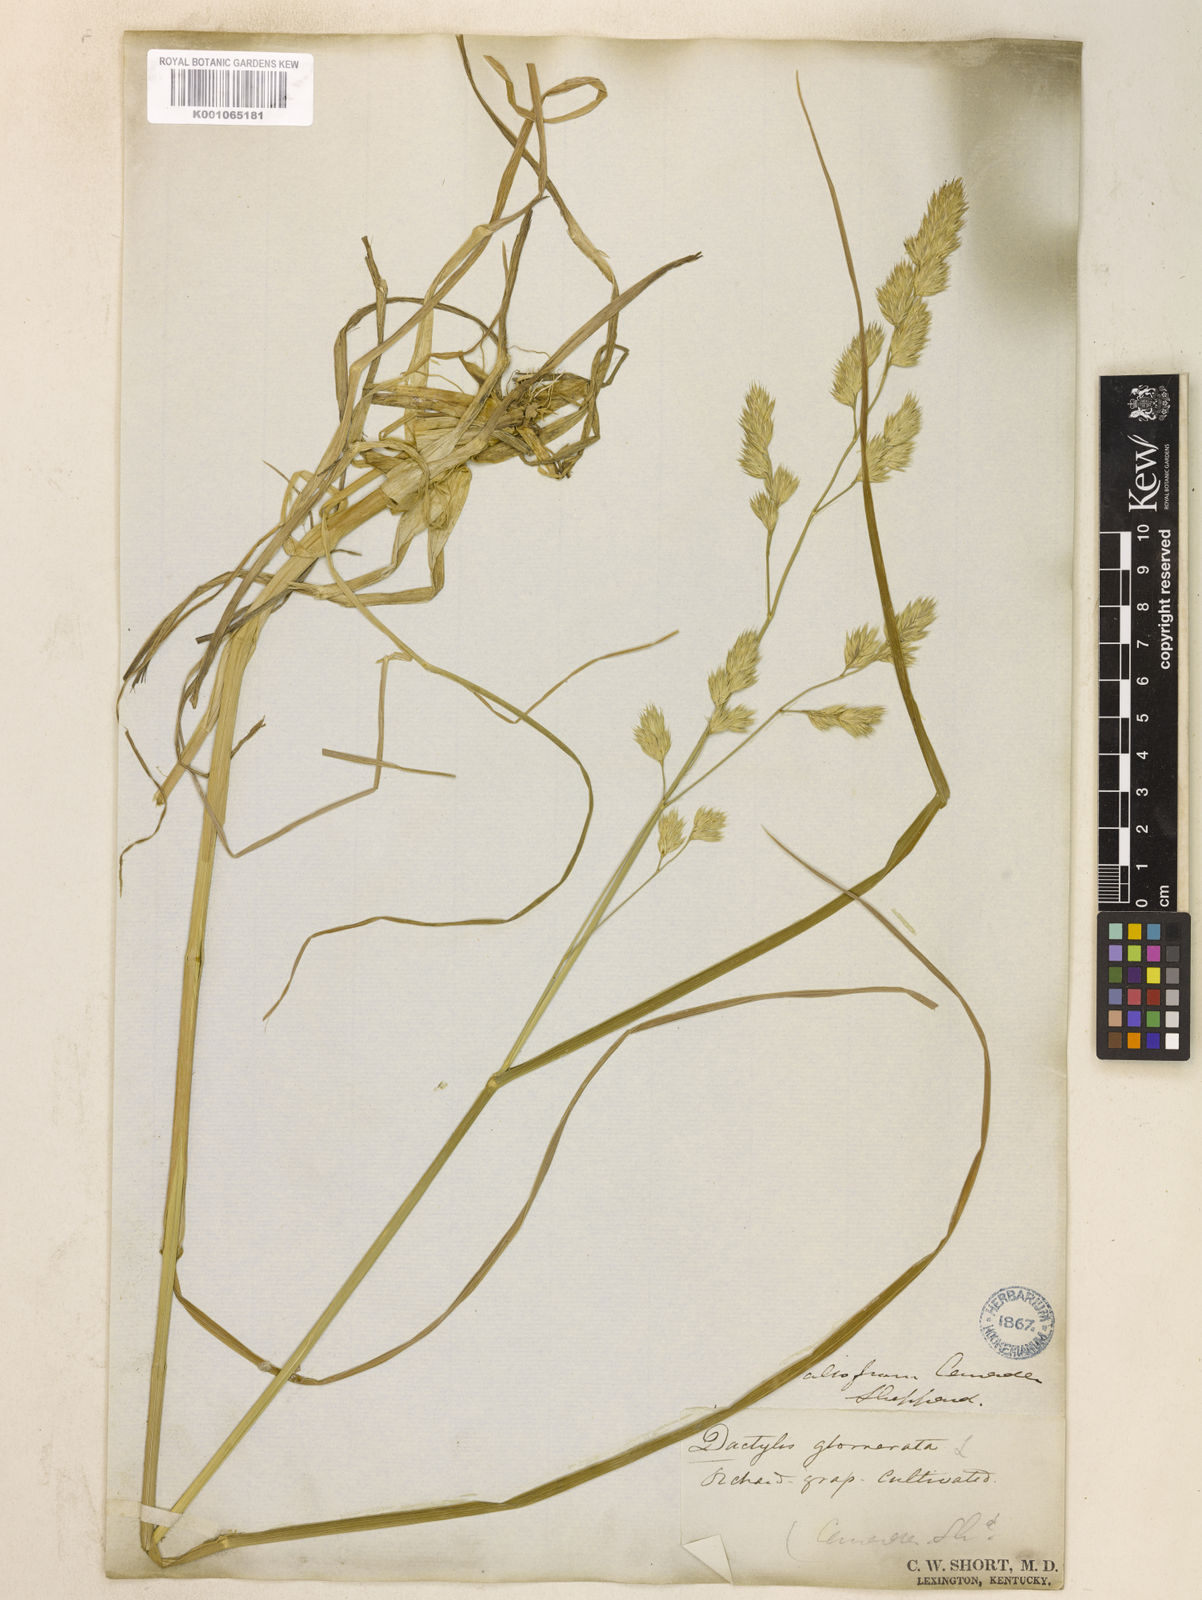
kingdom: Plantae
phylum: Tracheophyta
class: Liliopsida
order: Poales
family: Poaceae
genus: Dactylis
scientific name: Dactylis glomerata
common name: Orchardgrass
